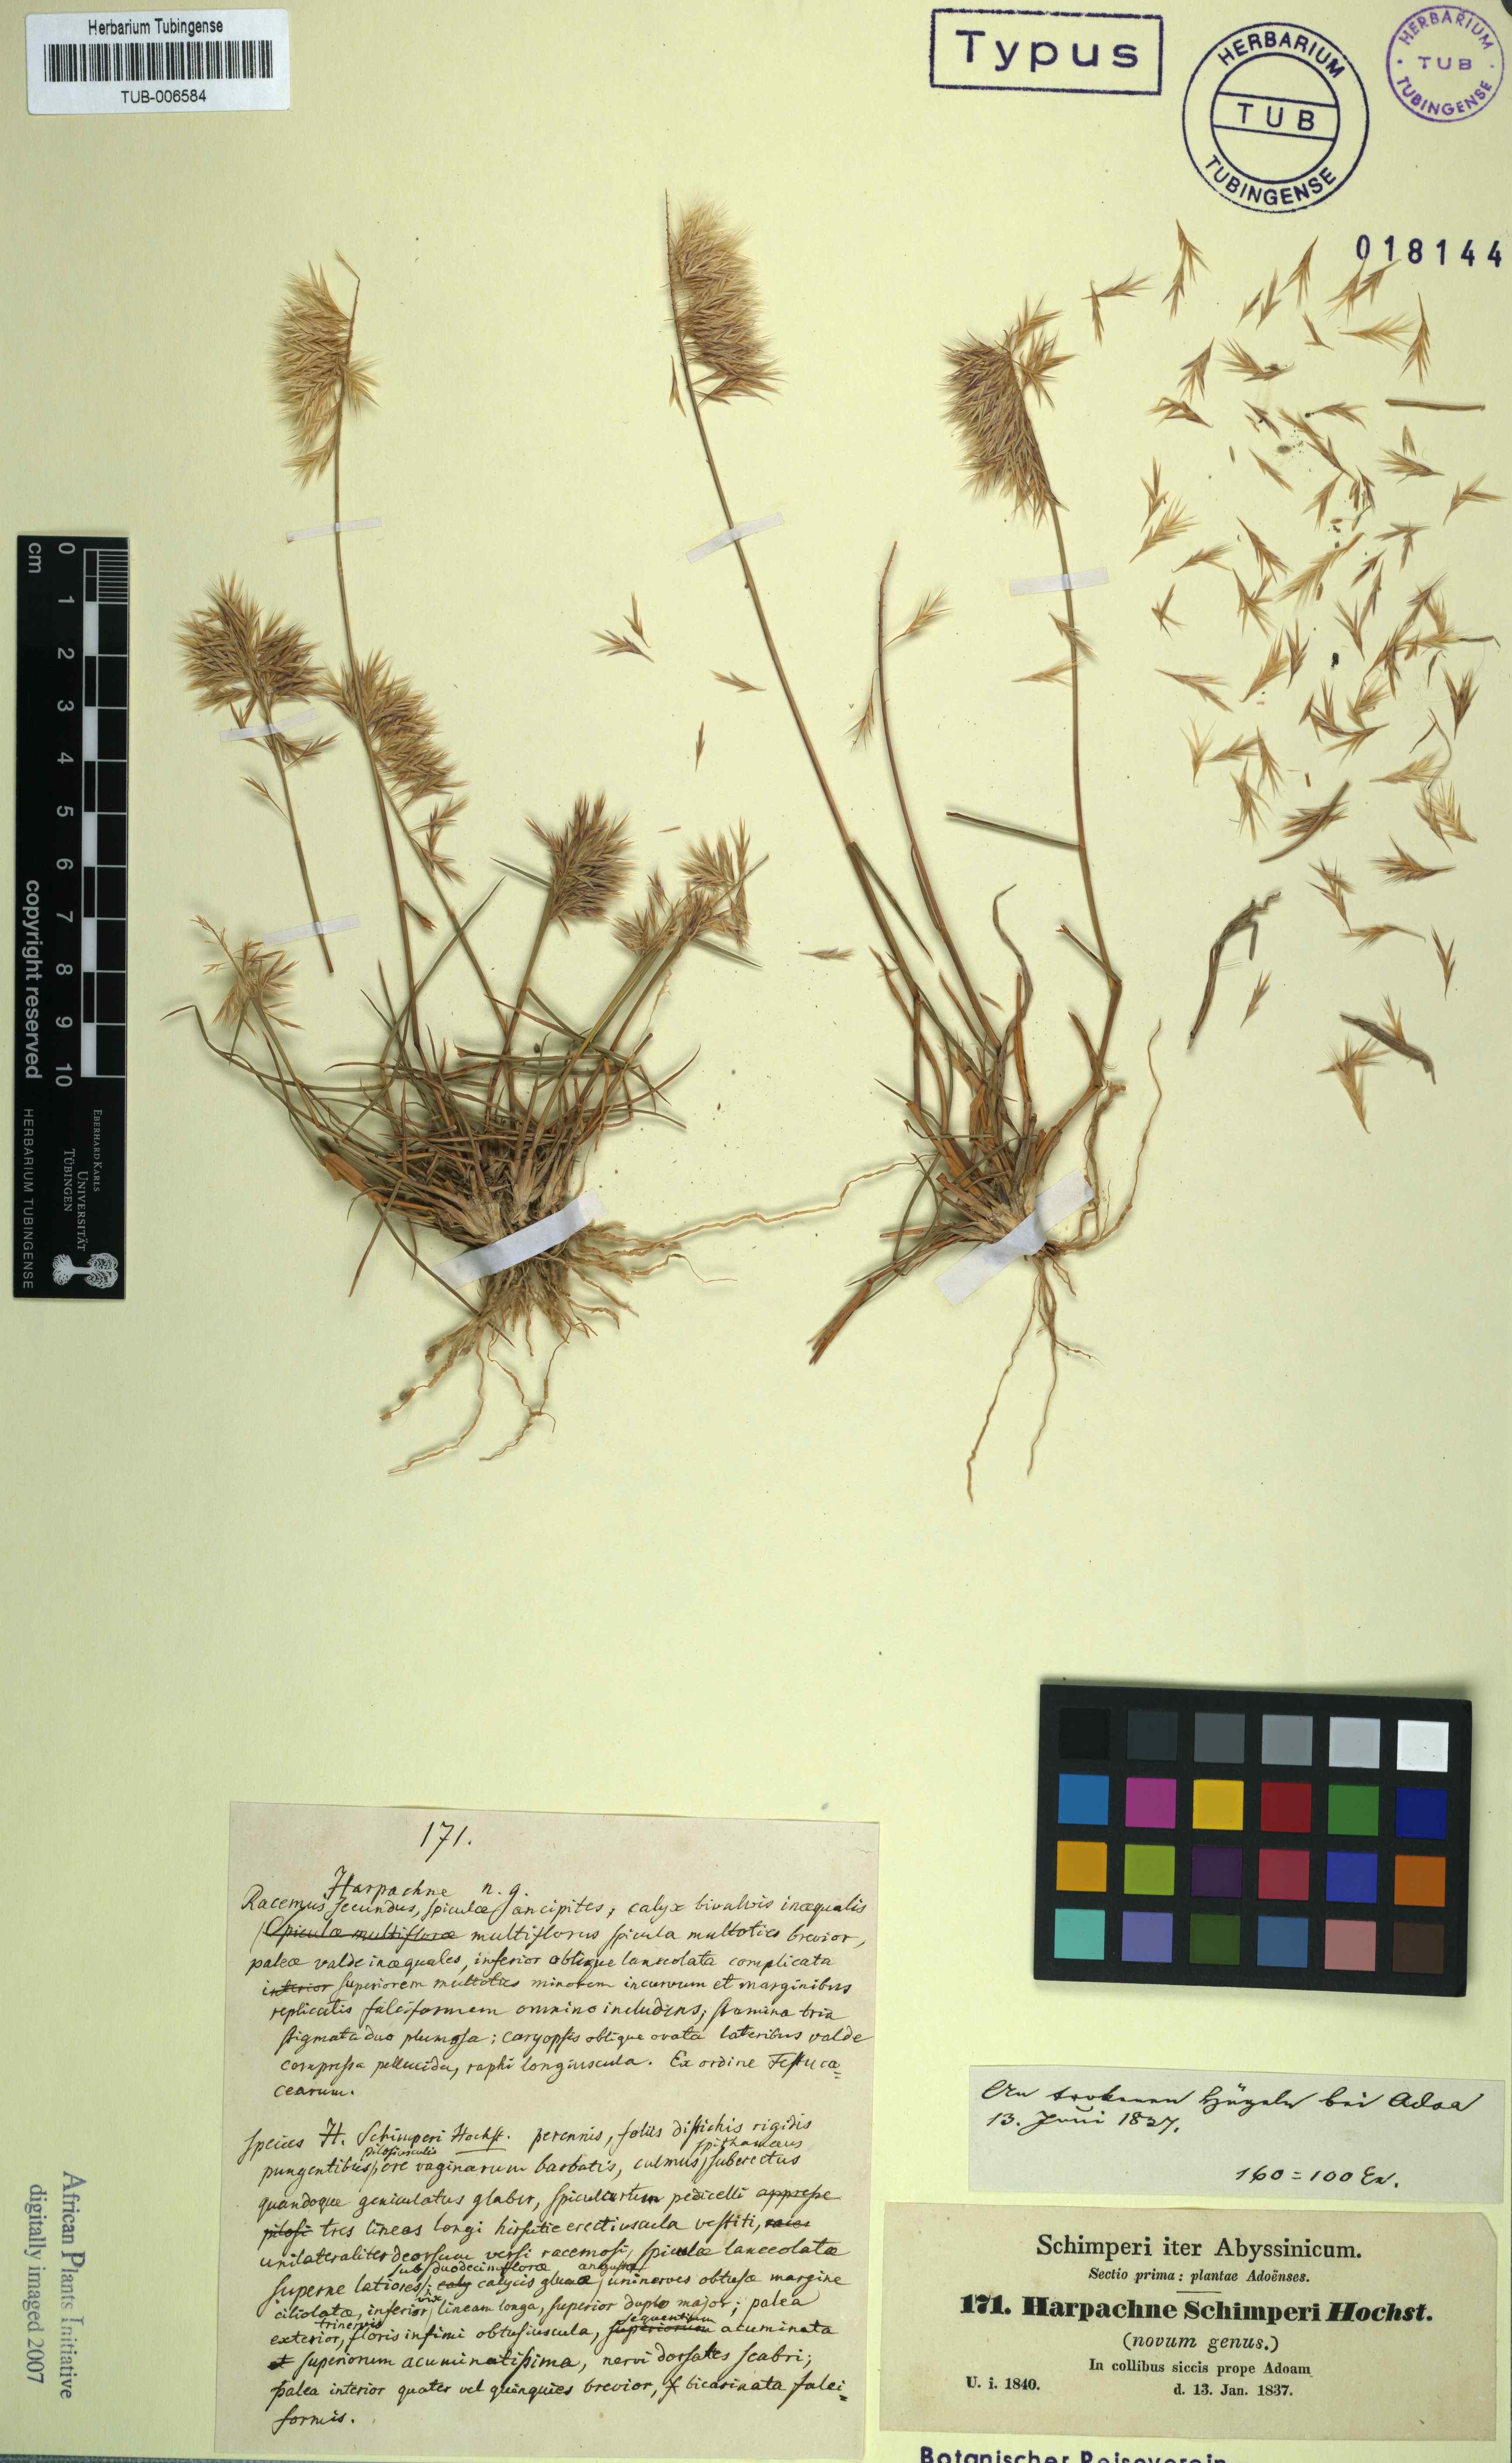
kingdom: Plantae
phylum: Tracheophyta
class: Liliopsida
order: Poales
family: Poaceae
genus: Harpachne
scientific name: Harpachne schimperi
